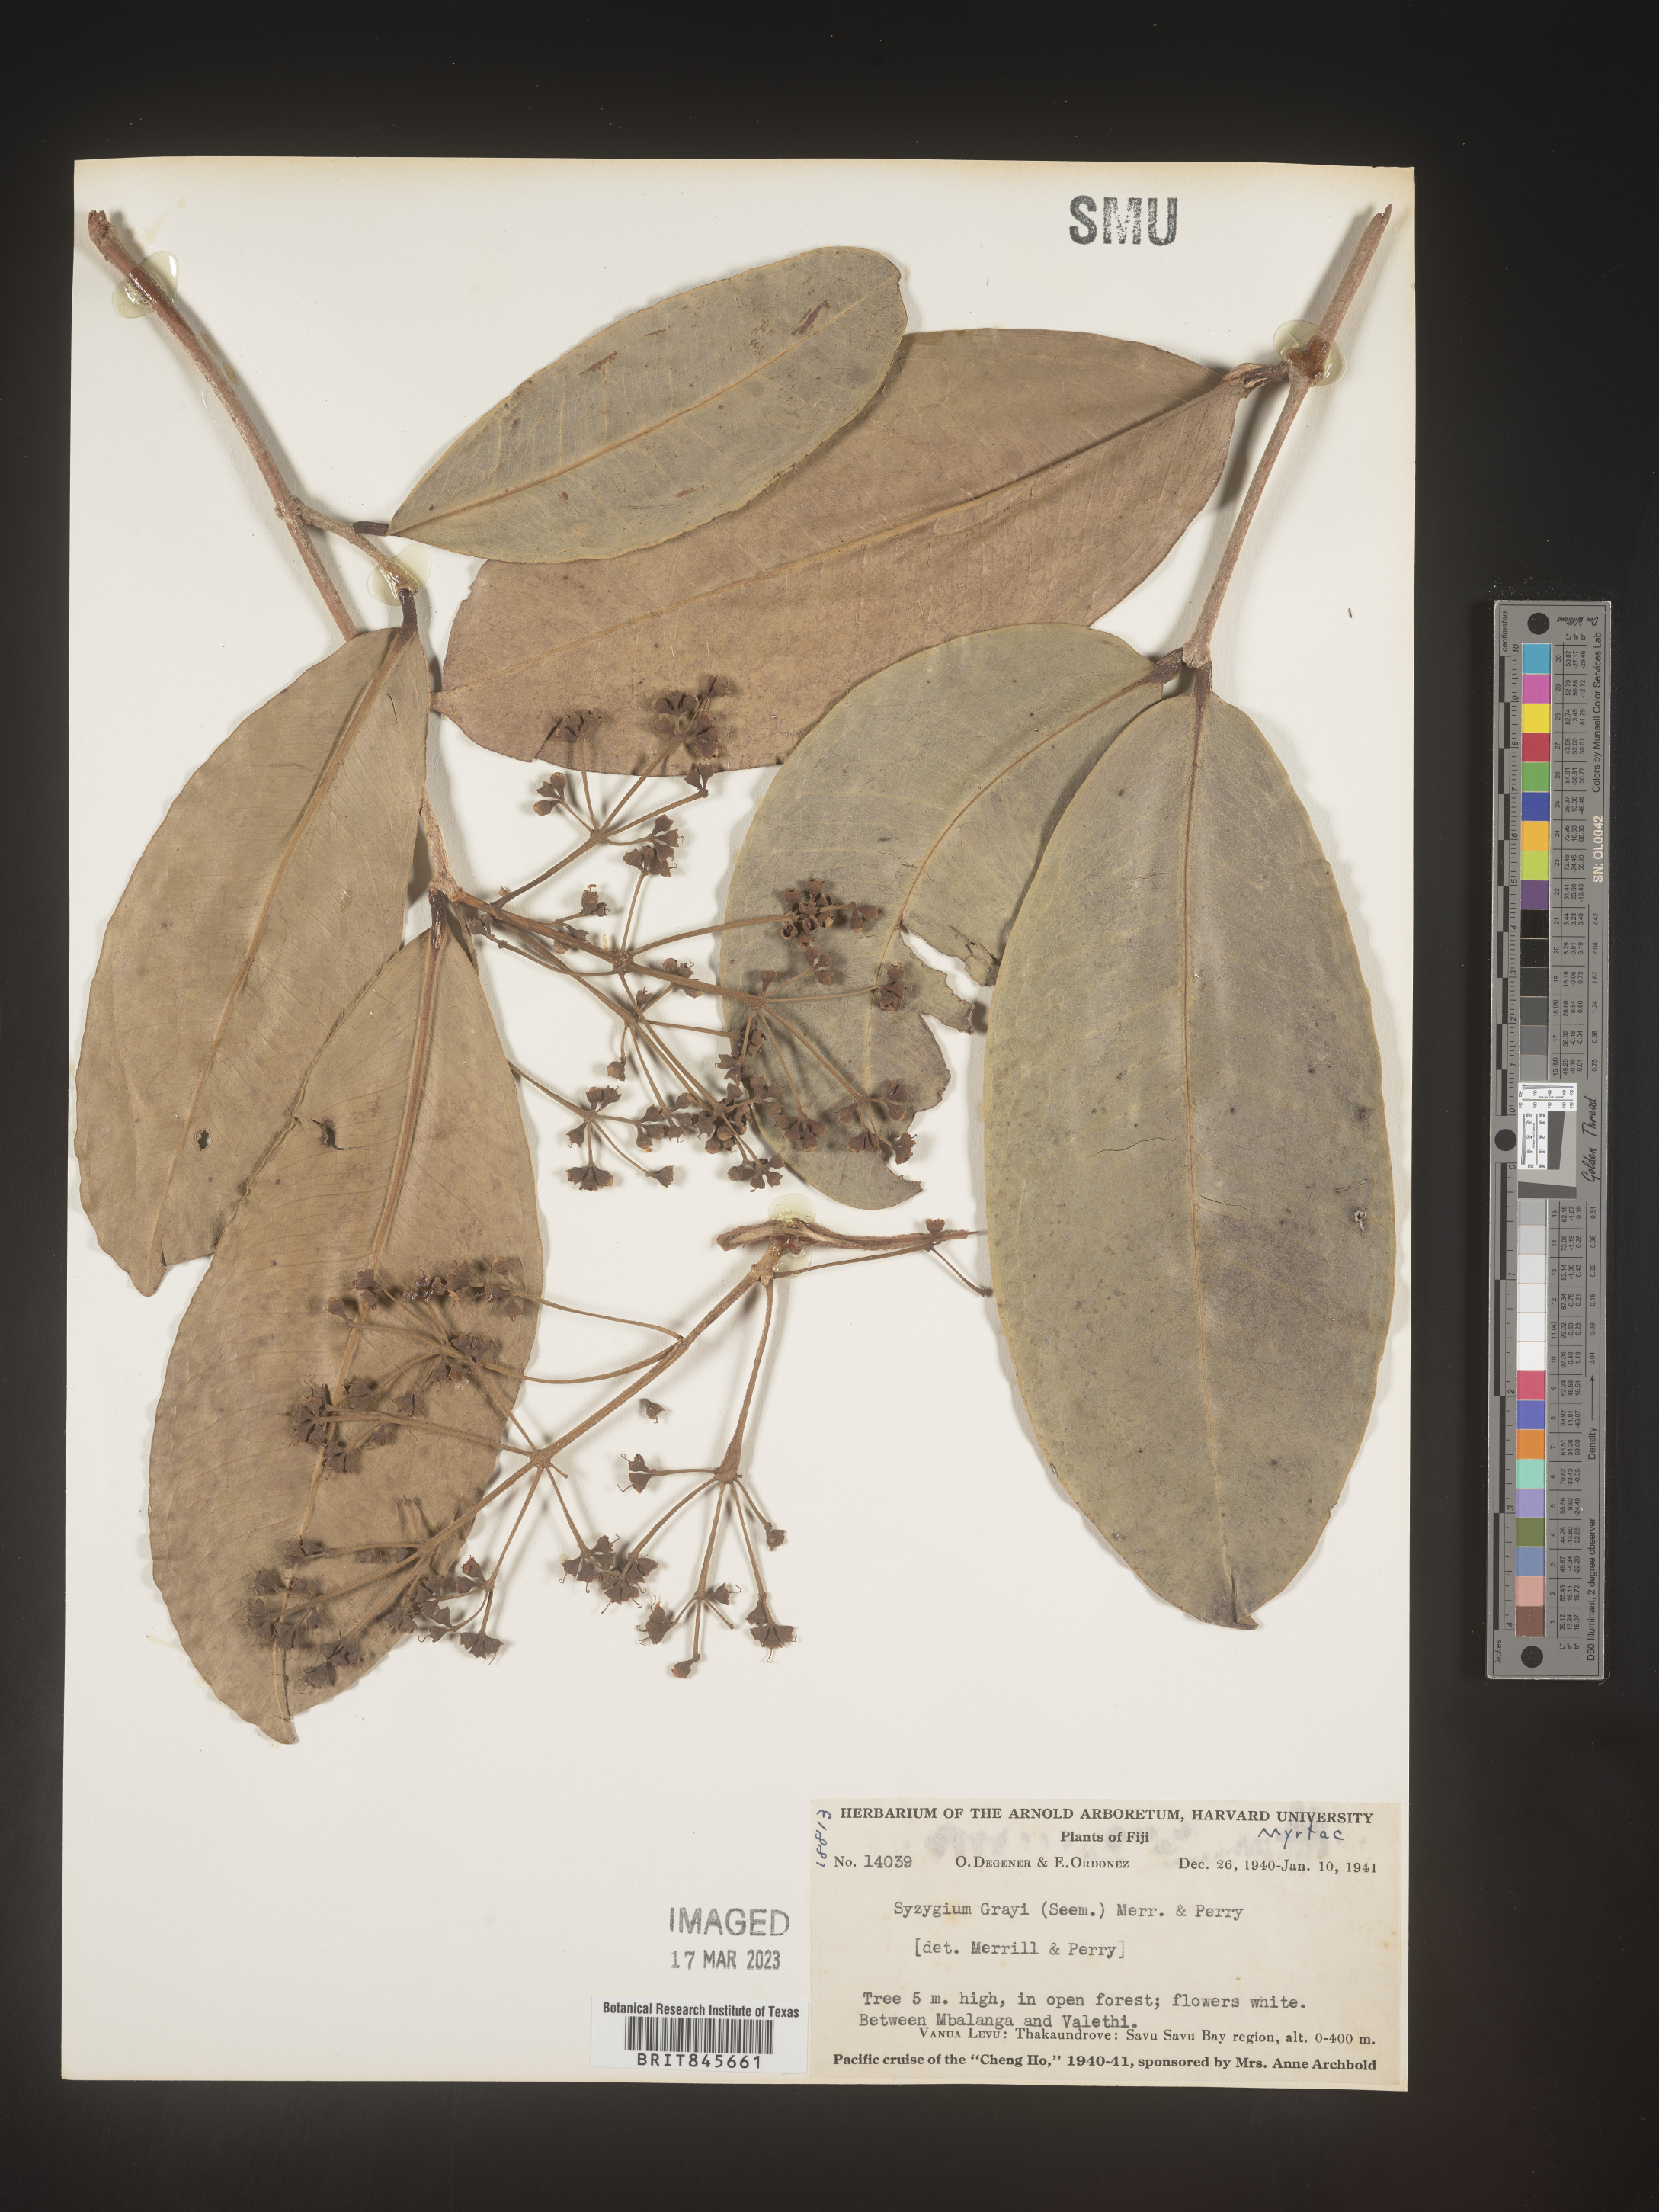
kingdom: Plantae
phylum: Tracheophyta
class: Magnoliopsida
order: Myrtales
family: Myrtaceae
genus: Syzygium
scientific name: Syzygium
